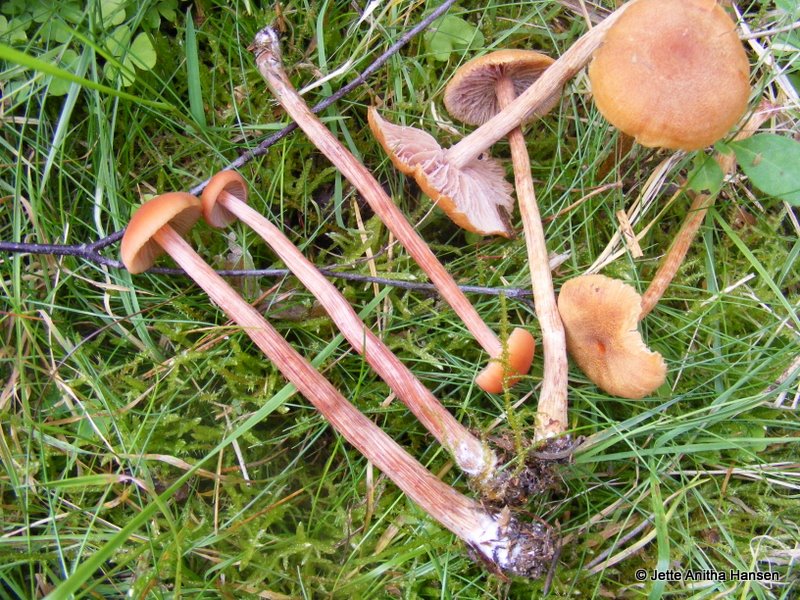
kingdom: Fungi
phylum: Basidiomycota
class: Agaricomycetes
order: Agaricales
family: Hydnangiaceae
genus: Laccaria
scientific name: Laccaria proxima
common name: stor ametysthat
